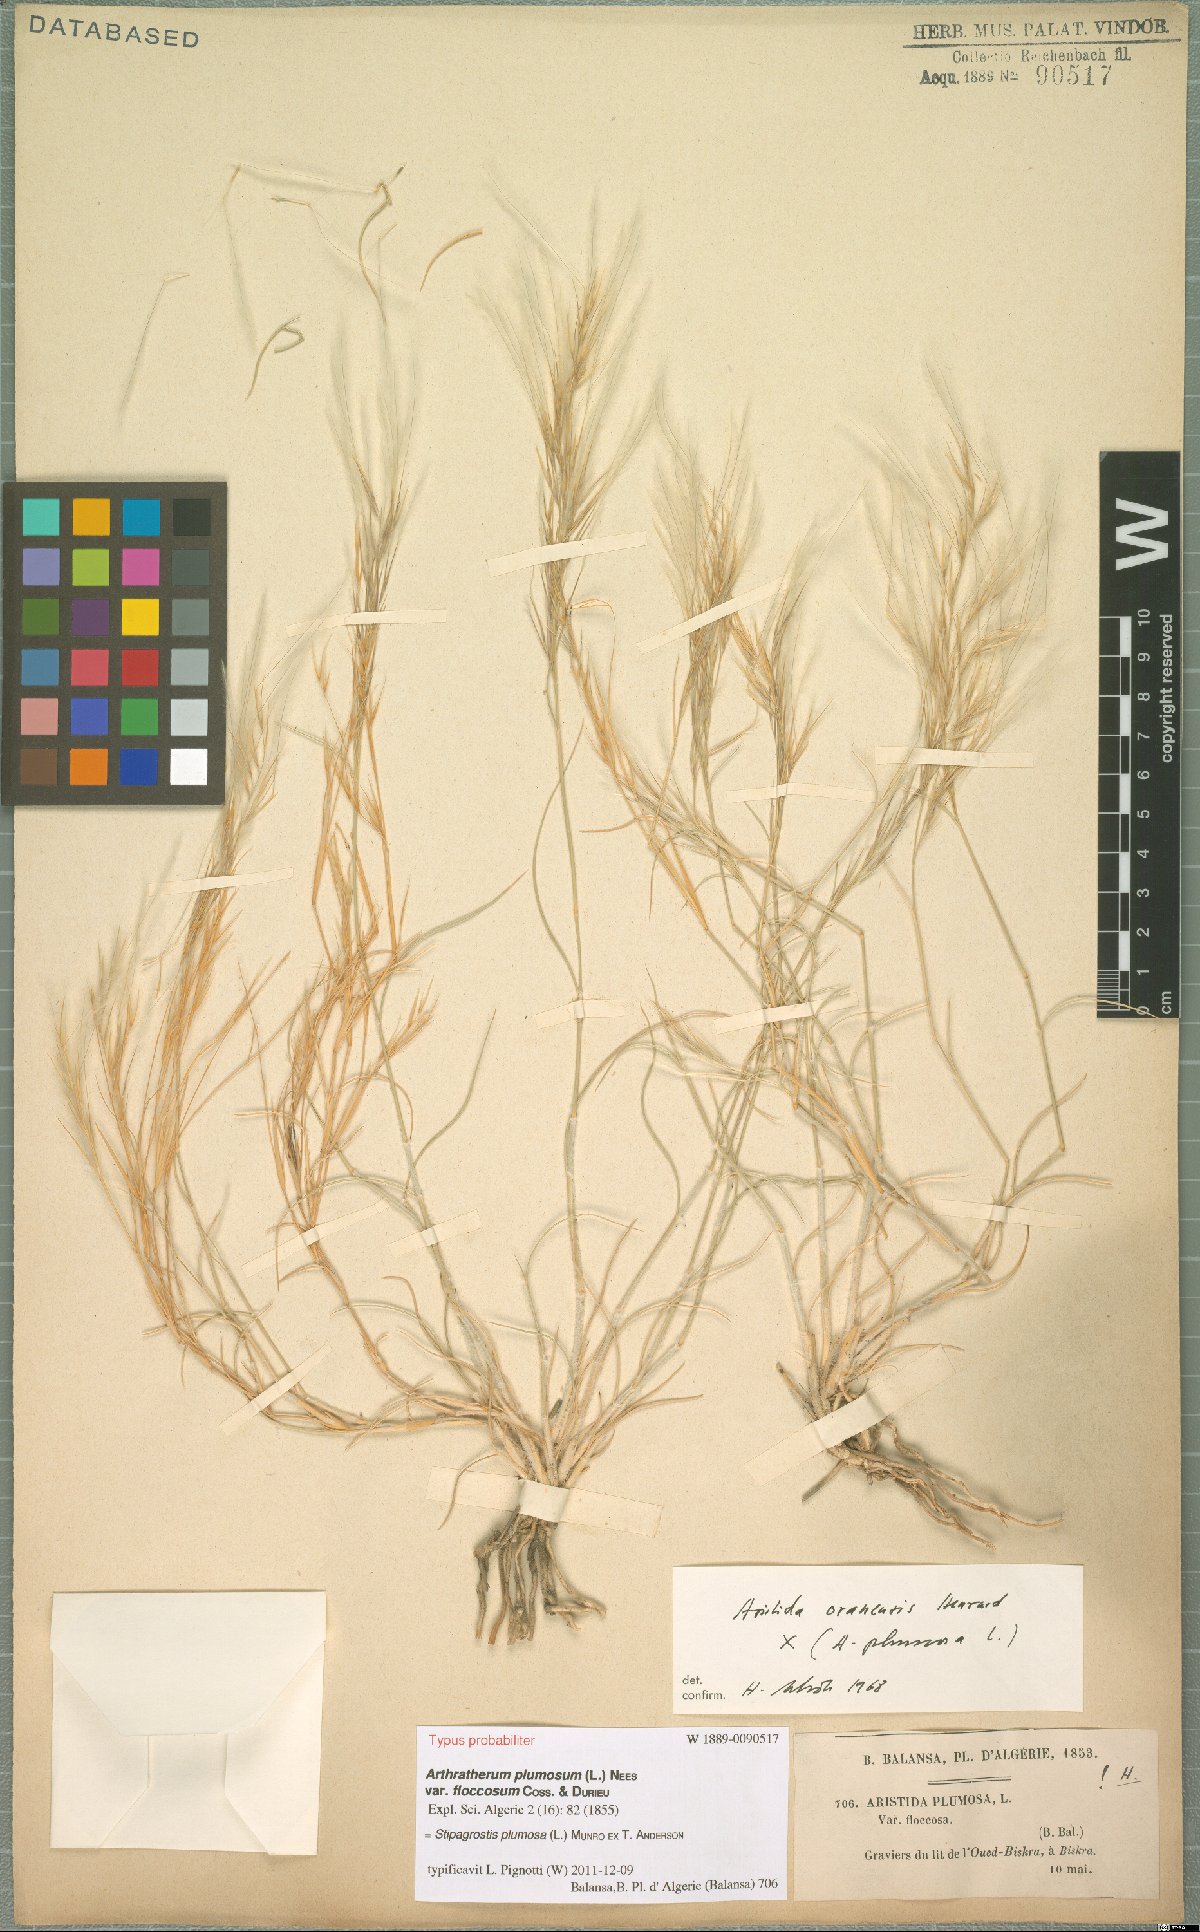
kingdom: Plantae
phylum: Tracheophyta
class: Liliopsida
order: Poales
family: Poaceae
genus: Stipagrostis
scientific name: Stipagrostis plumosa
